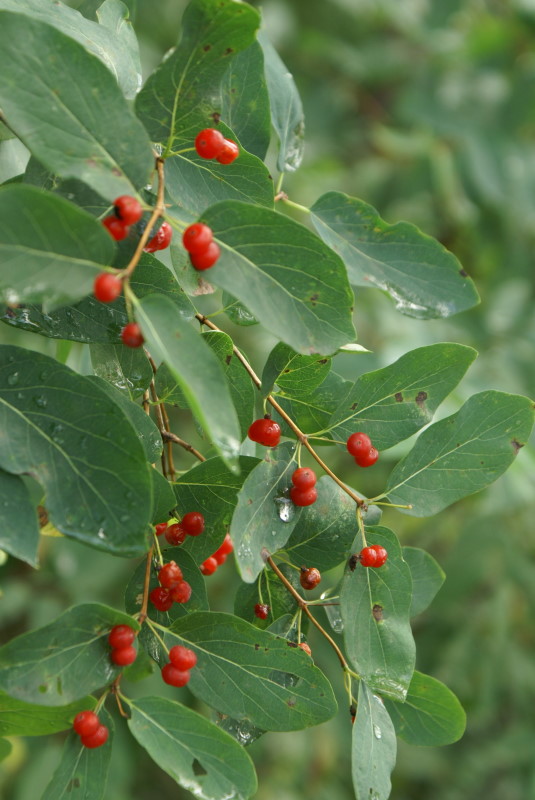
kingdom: Plantae
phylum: Tracheophyta
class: Magnoliopsida
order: Dipsacales
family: Caprifoliaceae
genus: Lonicera
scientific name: Lonicera tatarica
